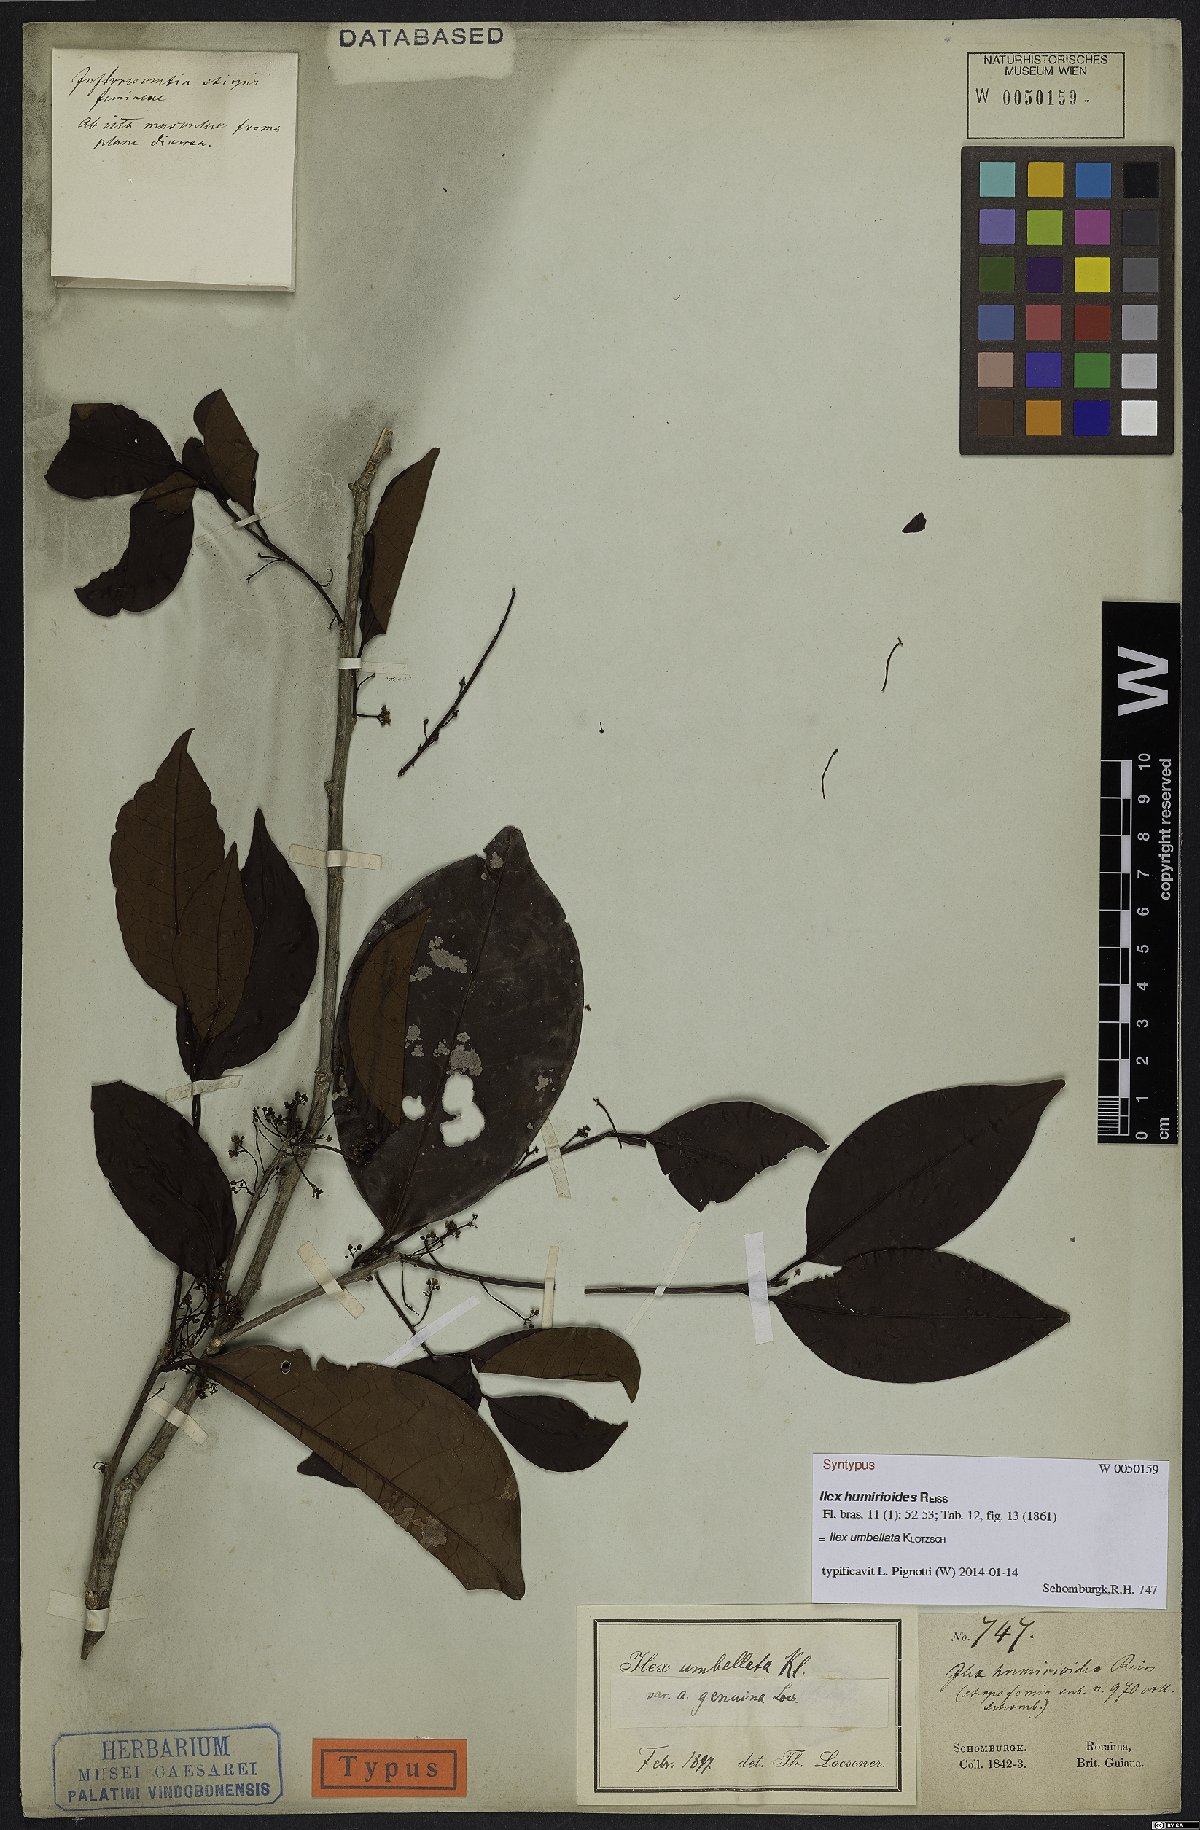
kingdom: Plantae
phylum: Tracheophyta
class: Magnoliopsida
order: Aquifoliales
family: Aquifoliaceae
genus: Ilex
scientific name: Ilex umbellata
